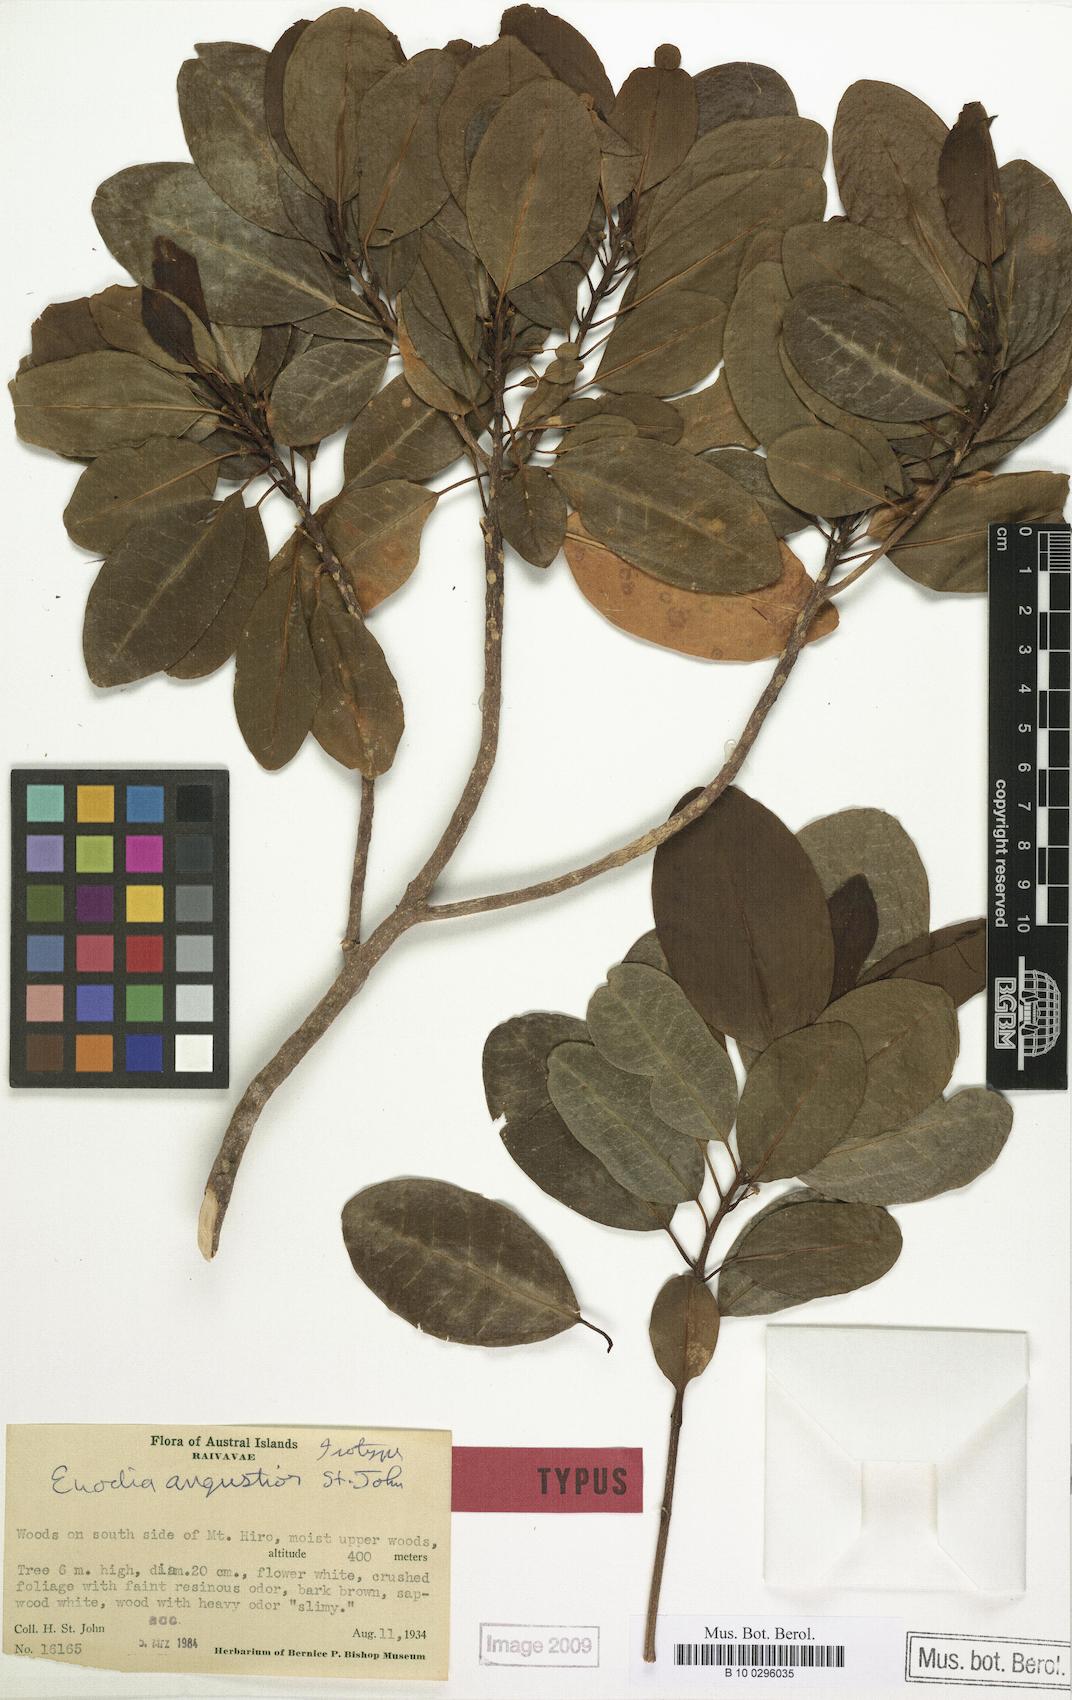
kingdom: Plantae
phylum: Tracheophyta
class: Magnoliopsida
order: Sapindales
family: Rutaceae
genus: Melicope
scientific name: Melicope bracteata
